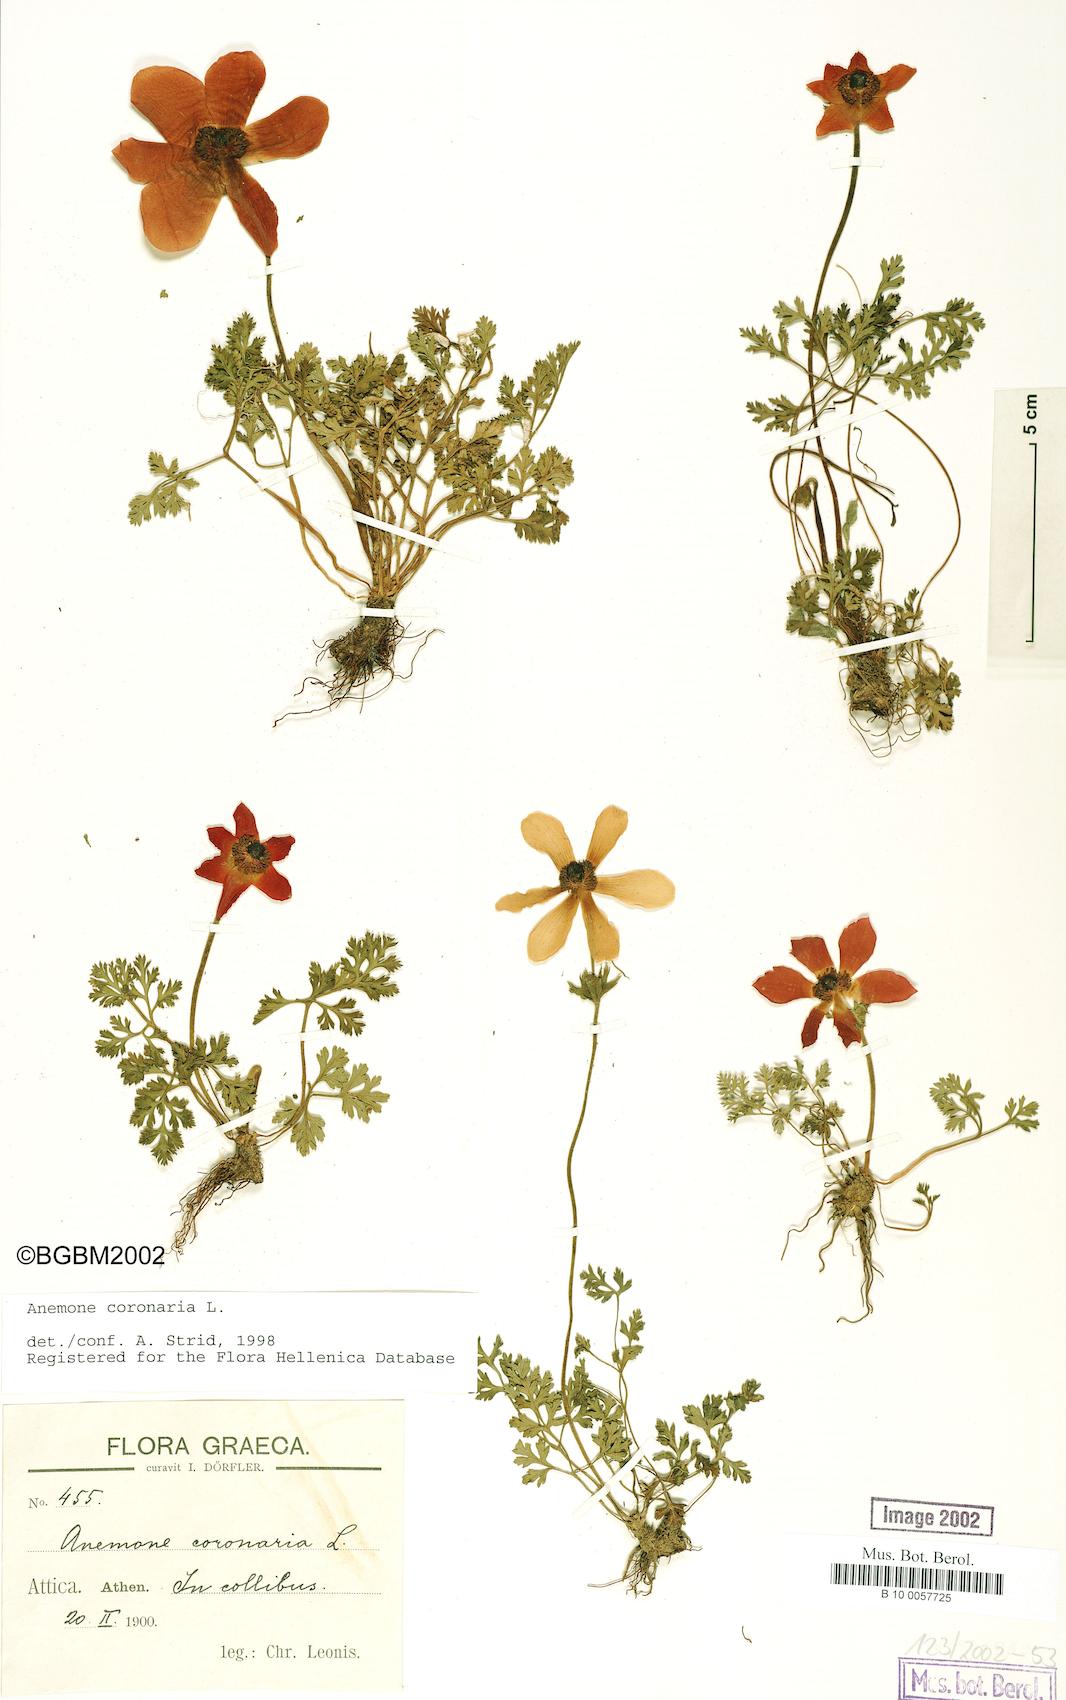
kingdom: Plantae
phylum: Tracheophyta
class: Magnoliopsida
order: Ranunculales
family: Ranunculaceae
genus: Anemone
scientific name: Anemone coronaria
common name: Poppy anemone
